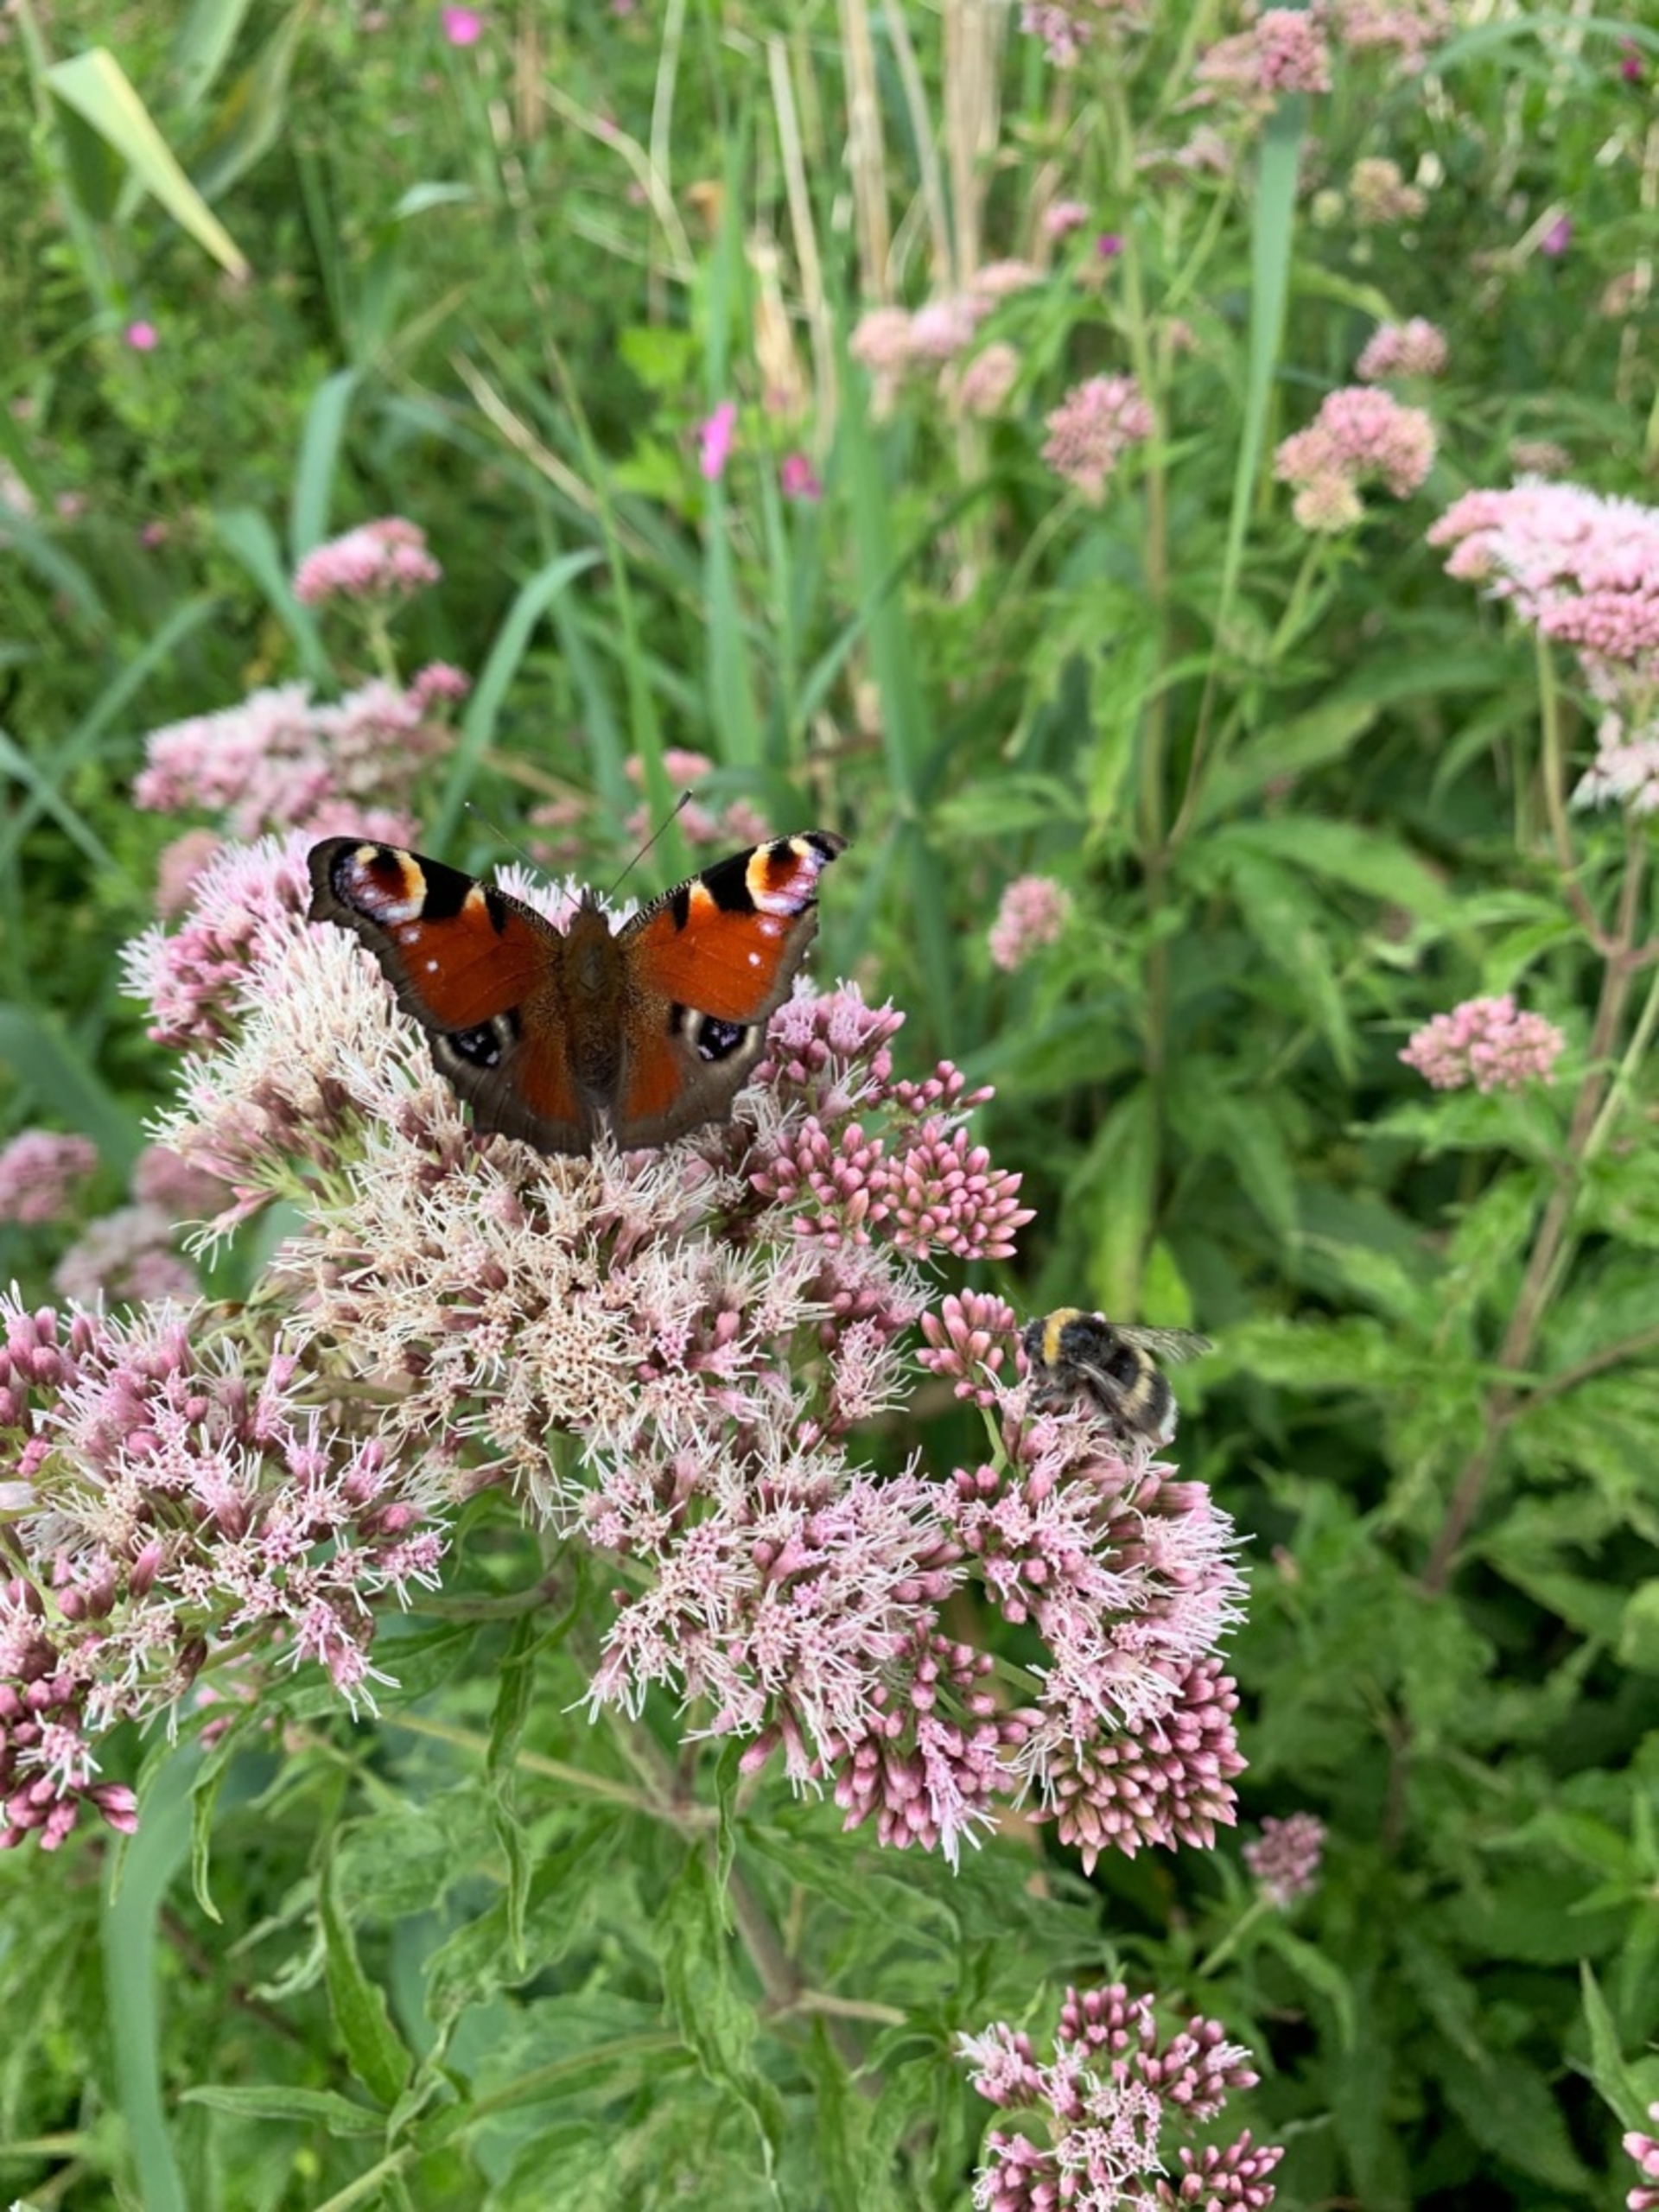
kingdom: Animalia
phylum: Arthropoda
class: Insecta
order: Lepidoptera
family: Nymphalidae
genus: Aglais
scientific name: Aglais io
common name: Dagpåfugleøje
